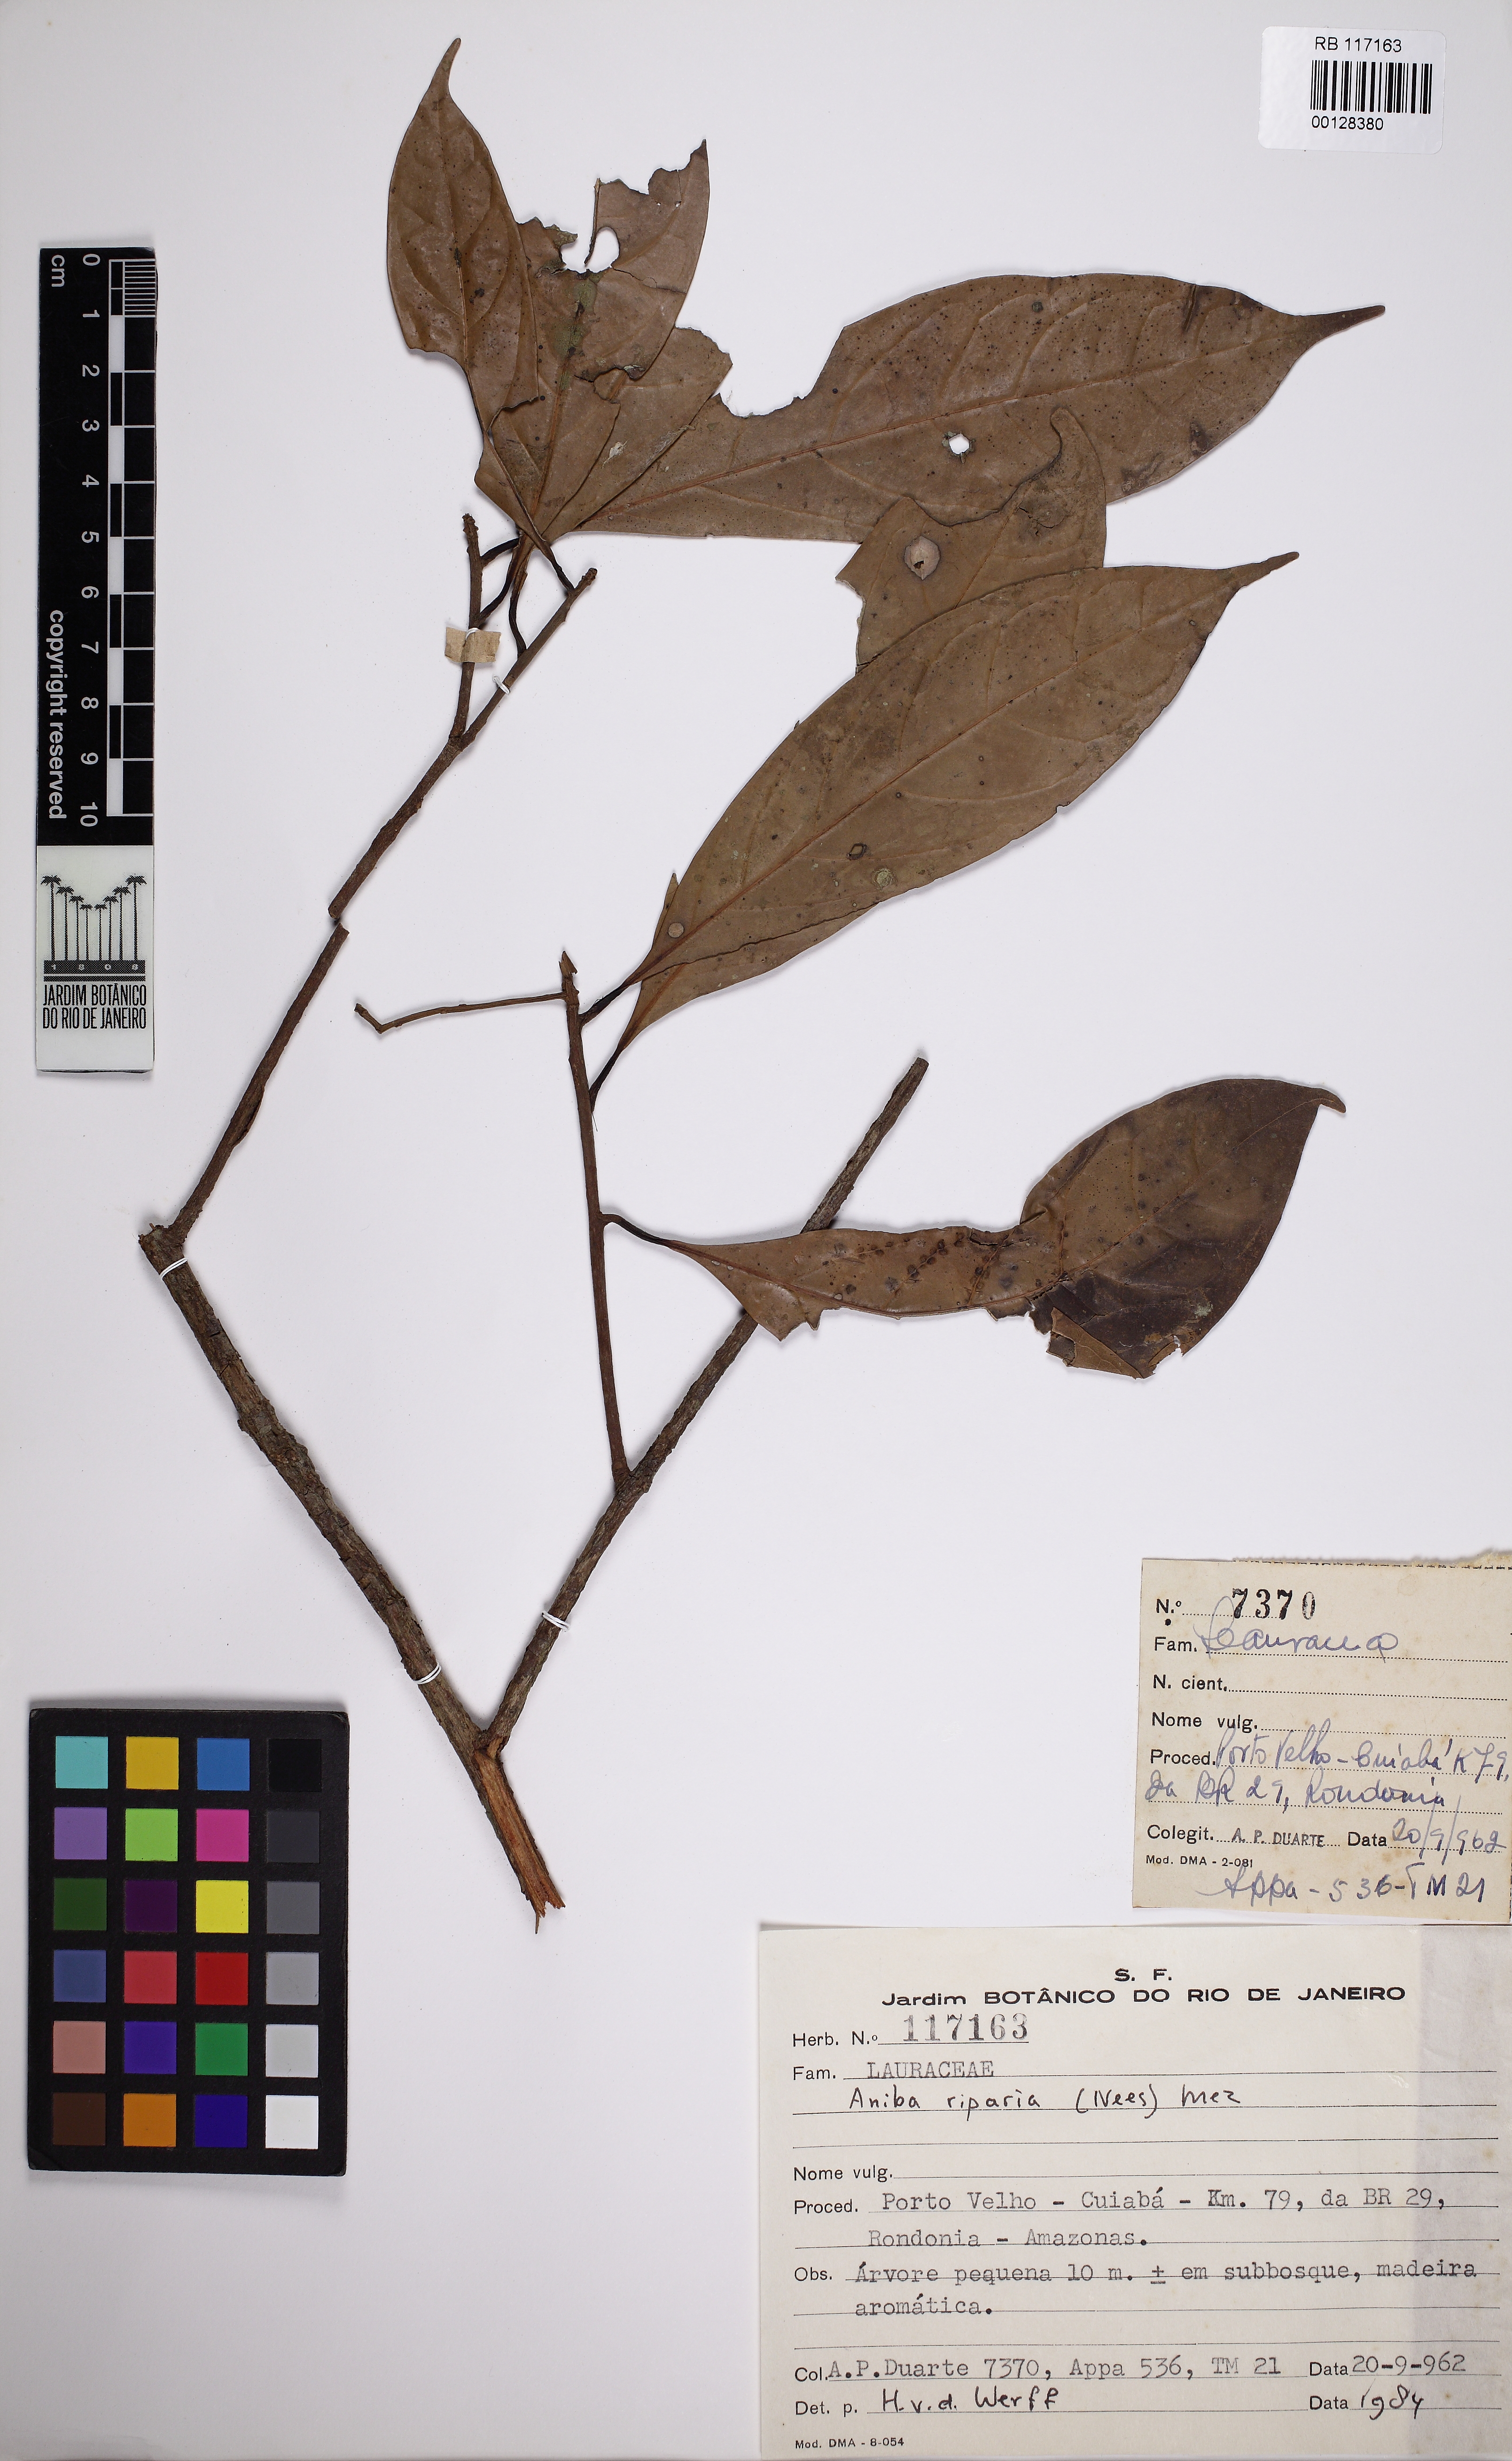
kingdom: Plantae
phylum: Tracheophyta
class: Magnoliopsida
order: Laurales
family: Lauraceae
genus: Aniba
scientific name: Aniba riparia
